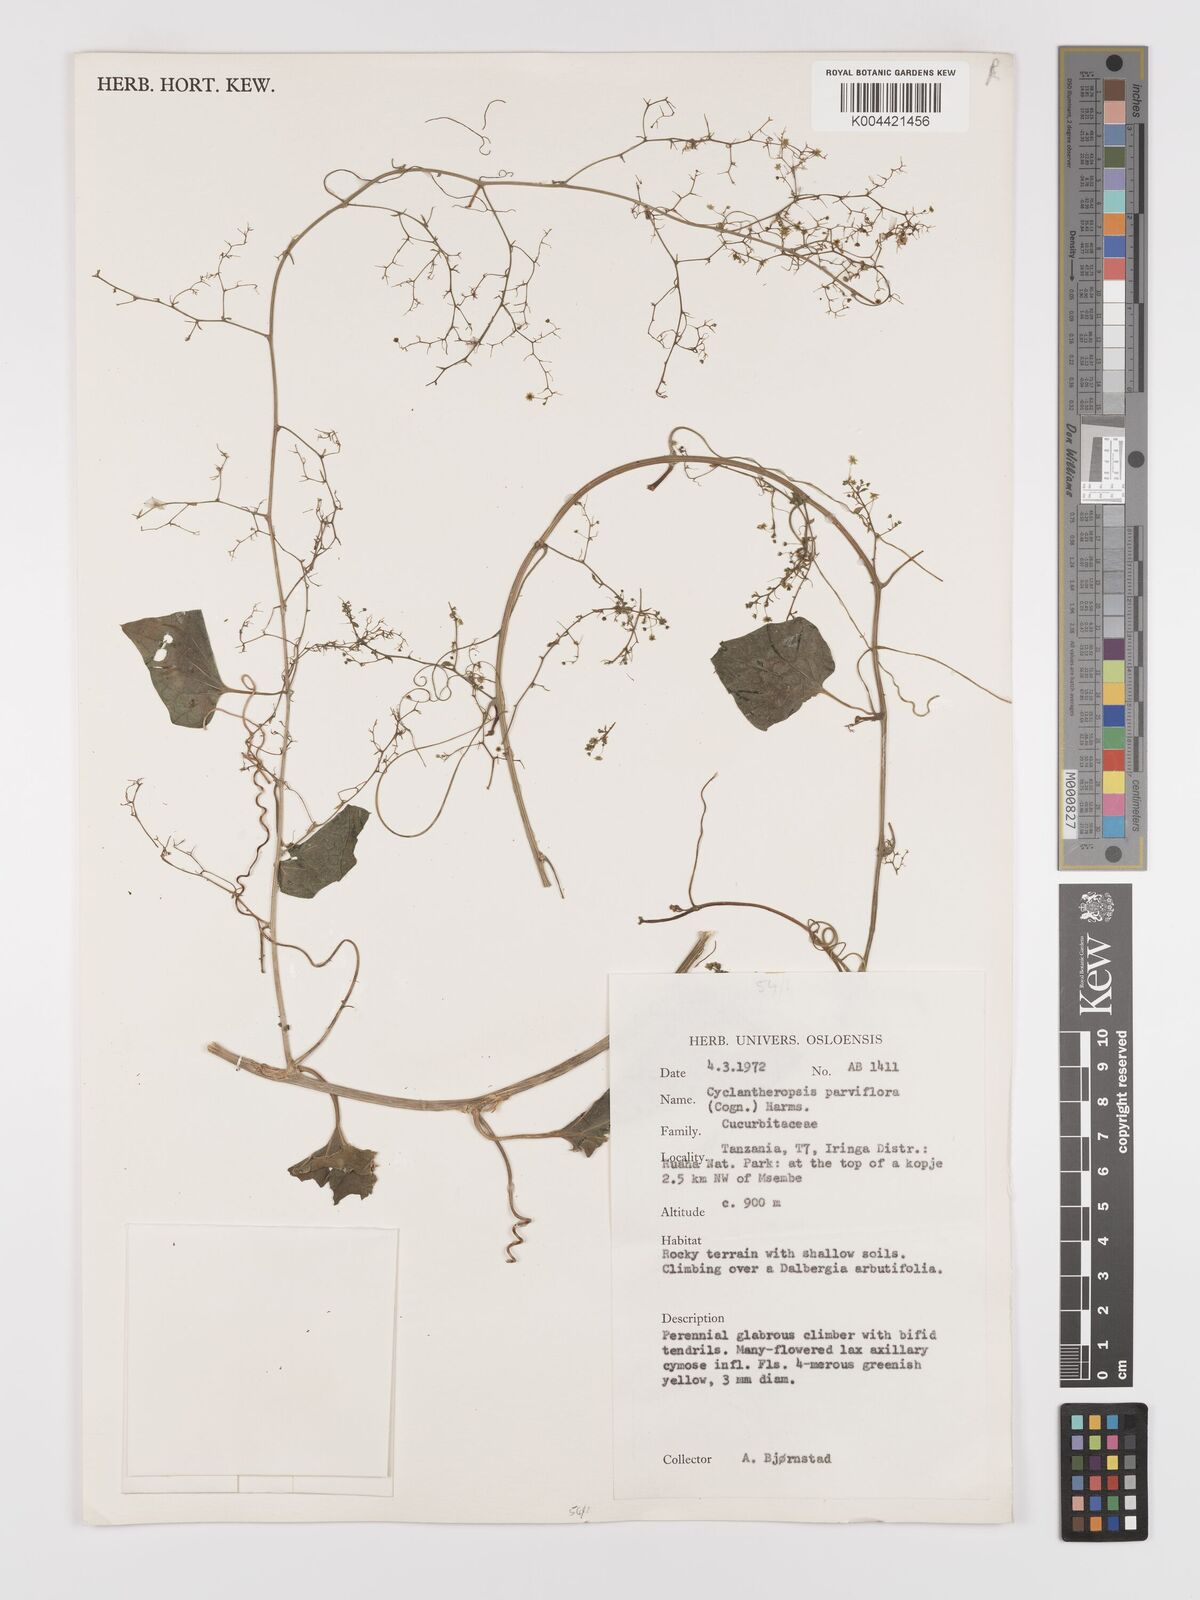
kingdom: Plantae
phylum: Tracheophyta
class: Magnoliopsida
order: Cucurbitales
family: Cucurbitaceae
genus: Cyclantheropsis
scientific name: Cyclantheropsis parviflora
